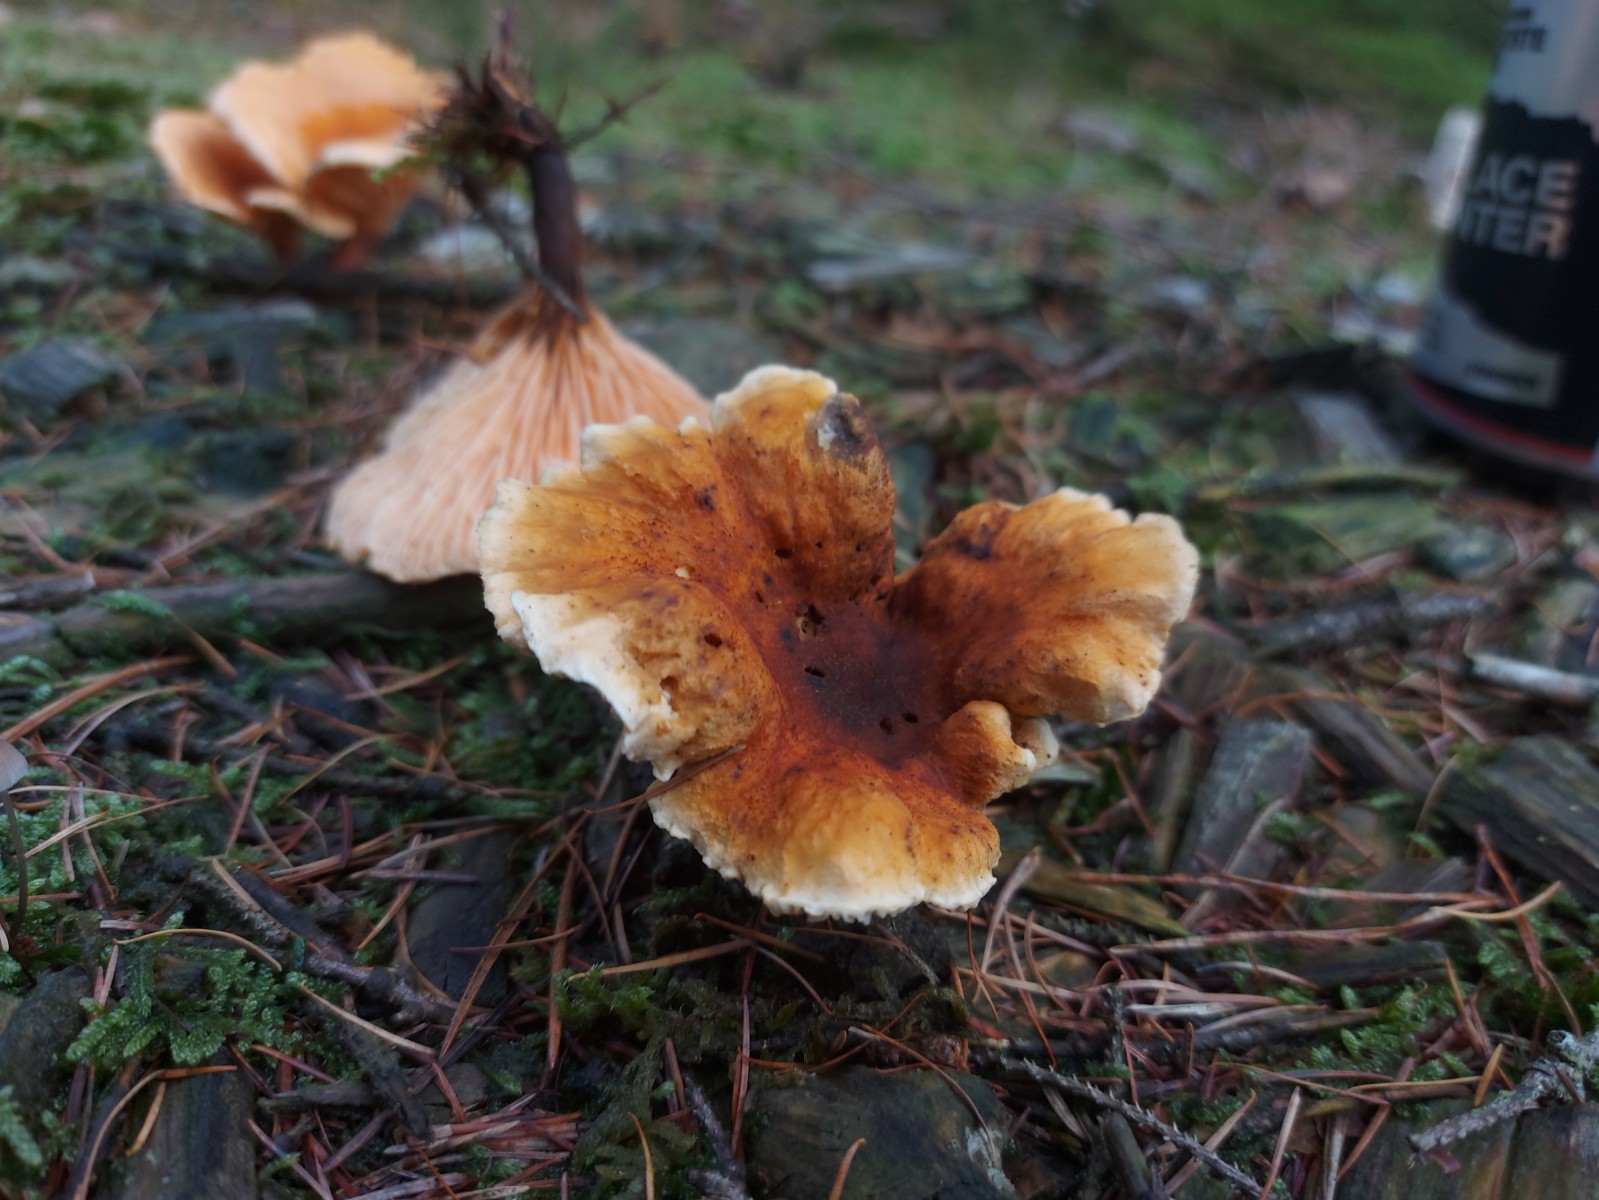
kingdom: Fungi
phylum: Basidiomycota
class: Agaricomycetes
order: Boletales
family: Hygrophoropsidaceae
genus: Hygrophoropsis
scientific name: Hygrophoropsis rufa
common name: brunfiltet orangekantarel
